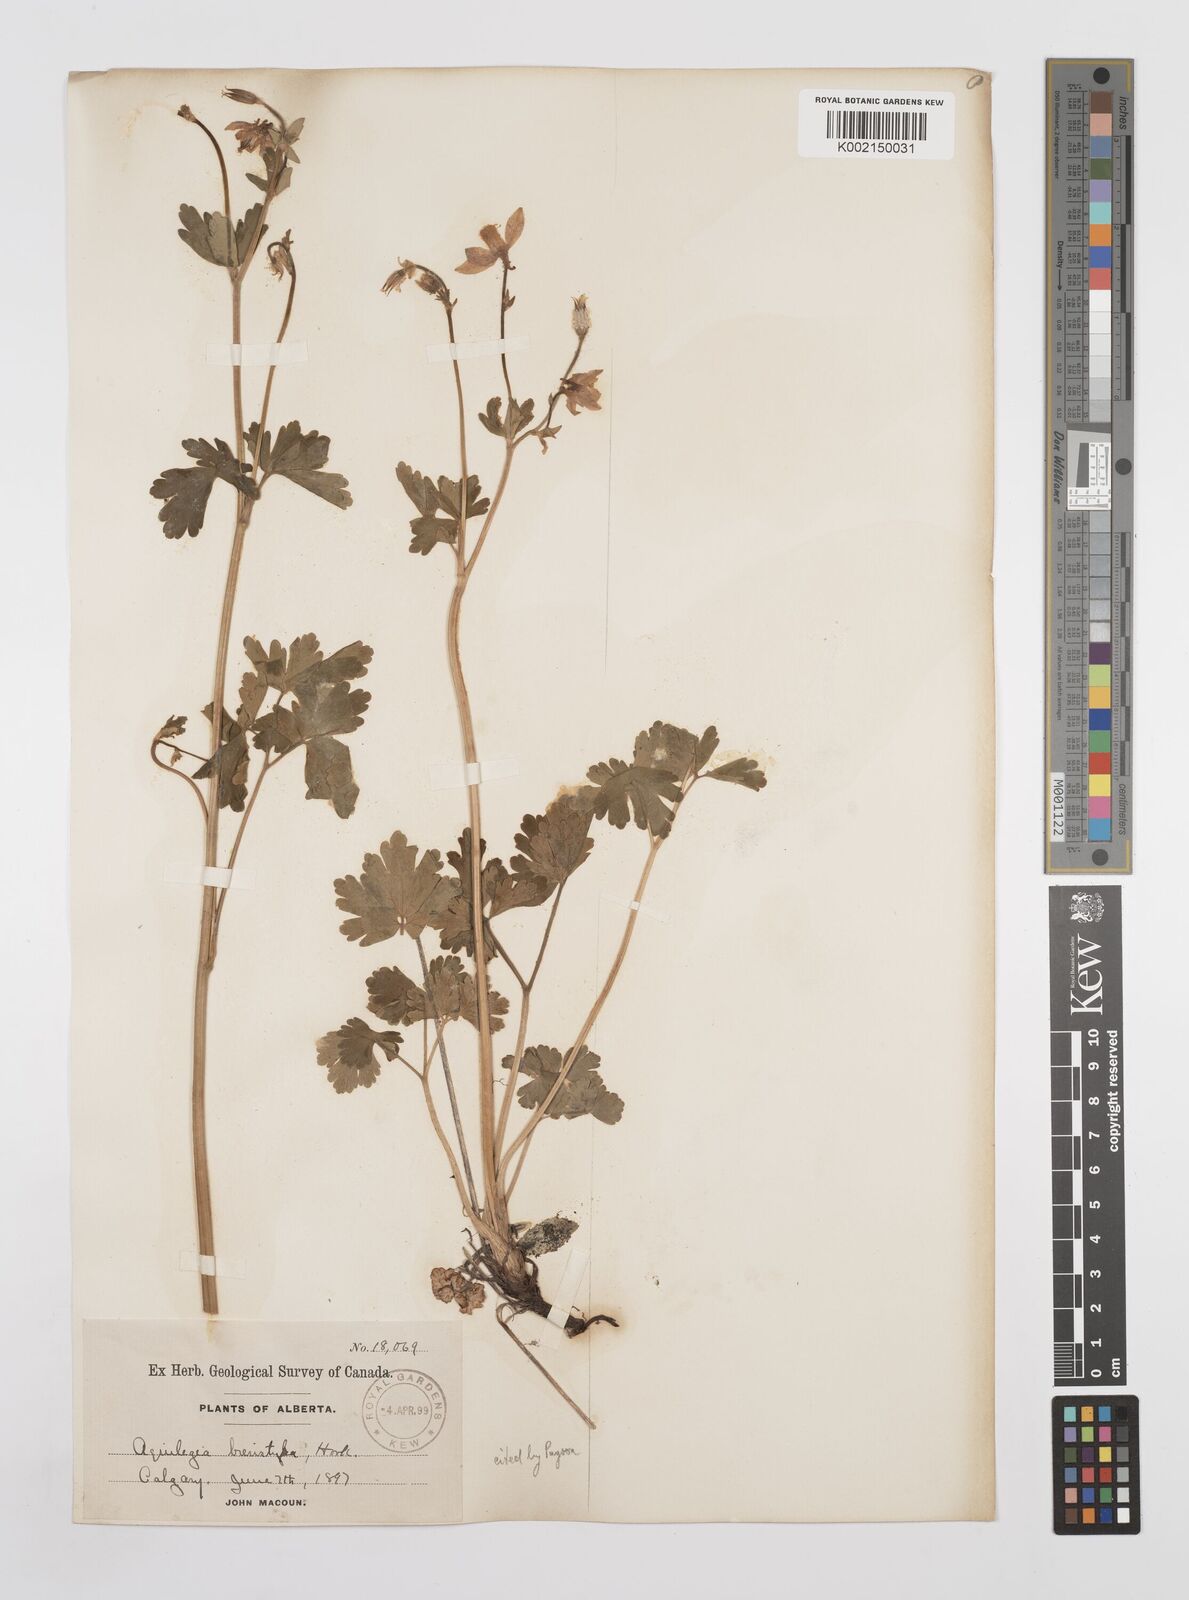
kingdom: Plantae
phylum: Tracheophyta
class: Magnoliopsida
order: Ranunculales
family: Ranunculaceae
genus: Aquilegia
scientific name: Aquilegia brevistyla
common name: Yukon columbine
